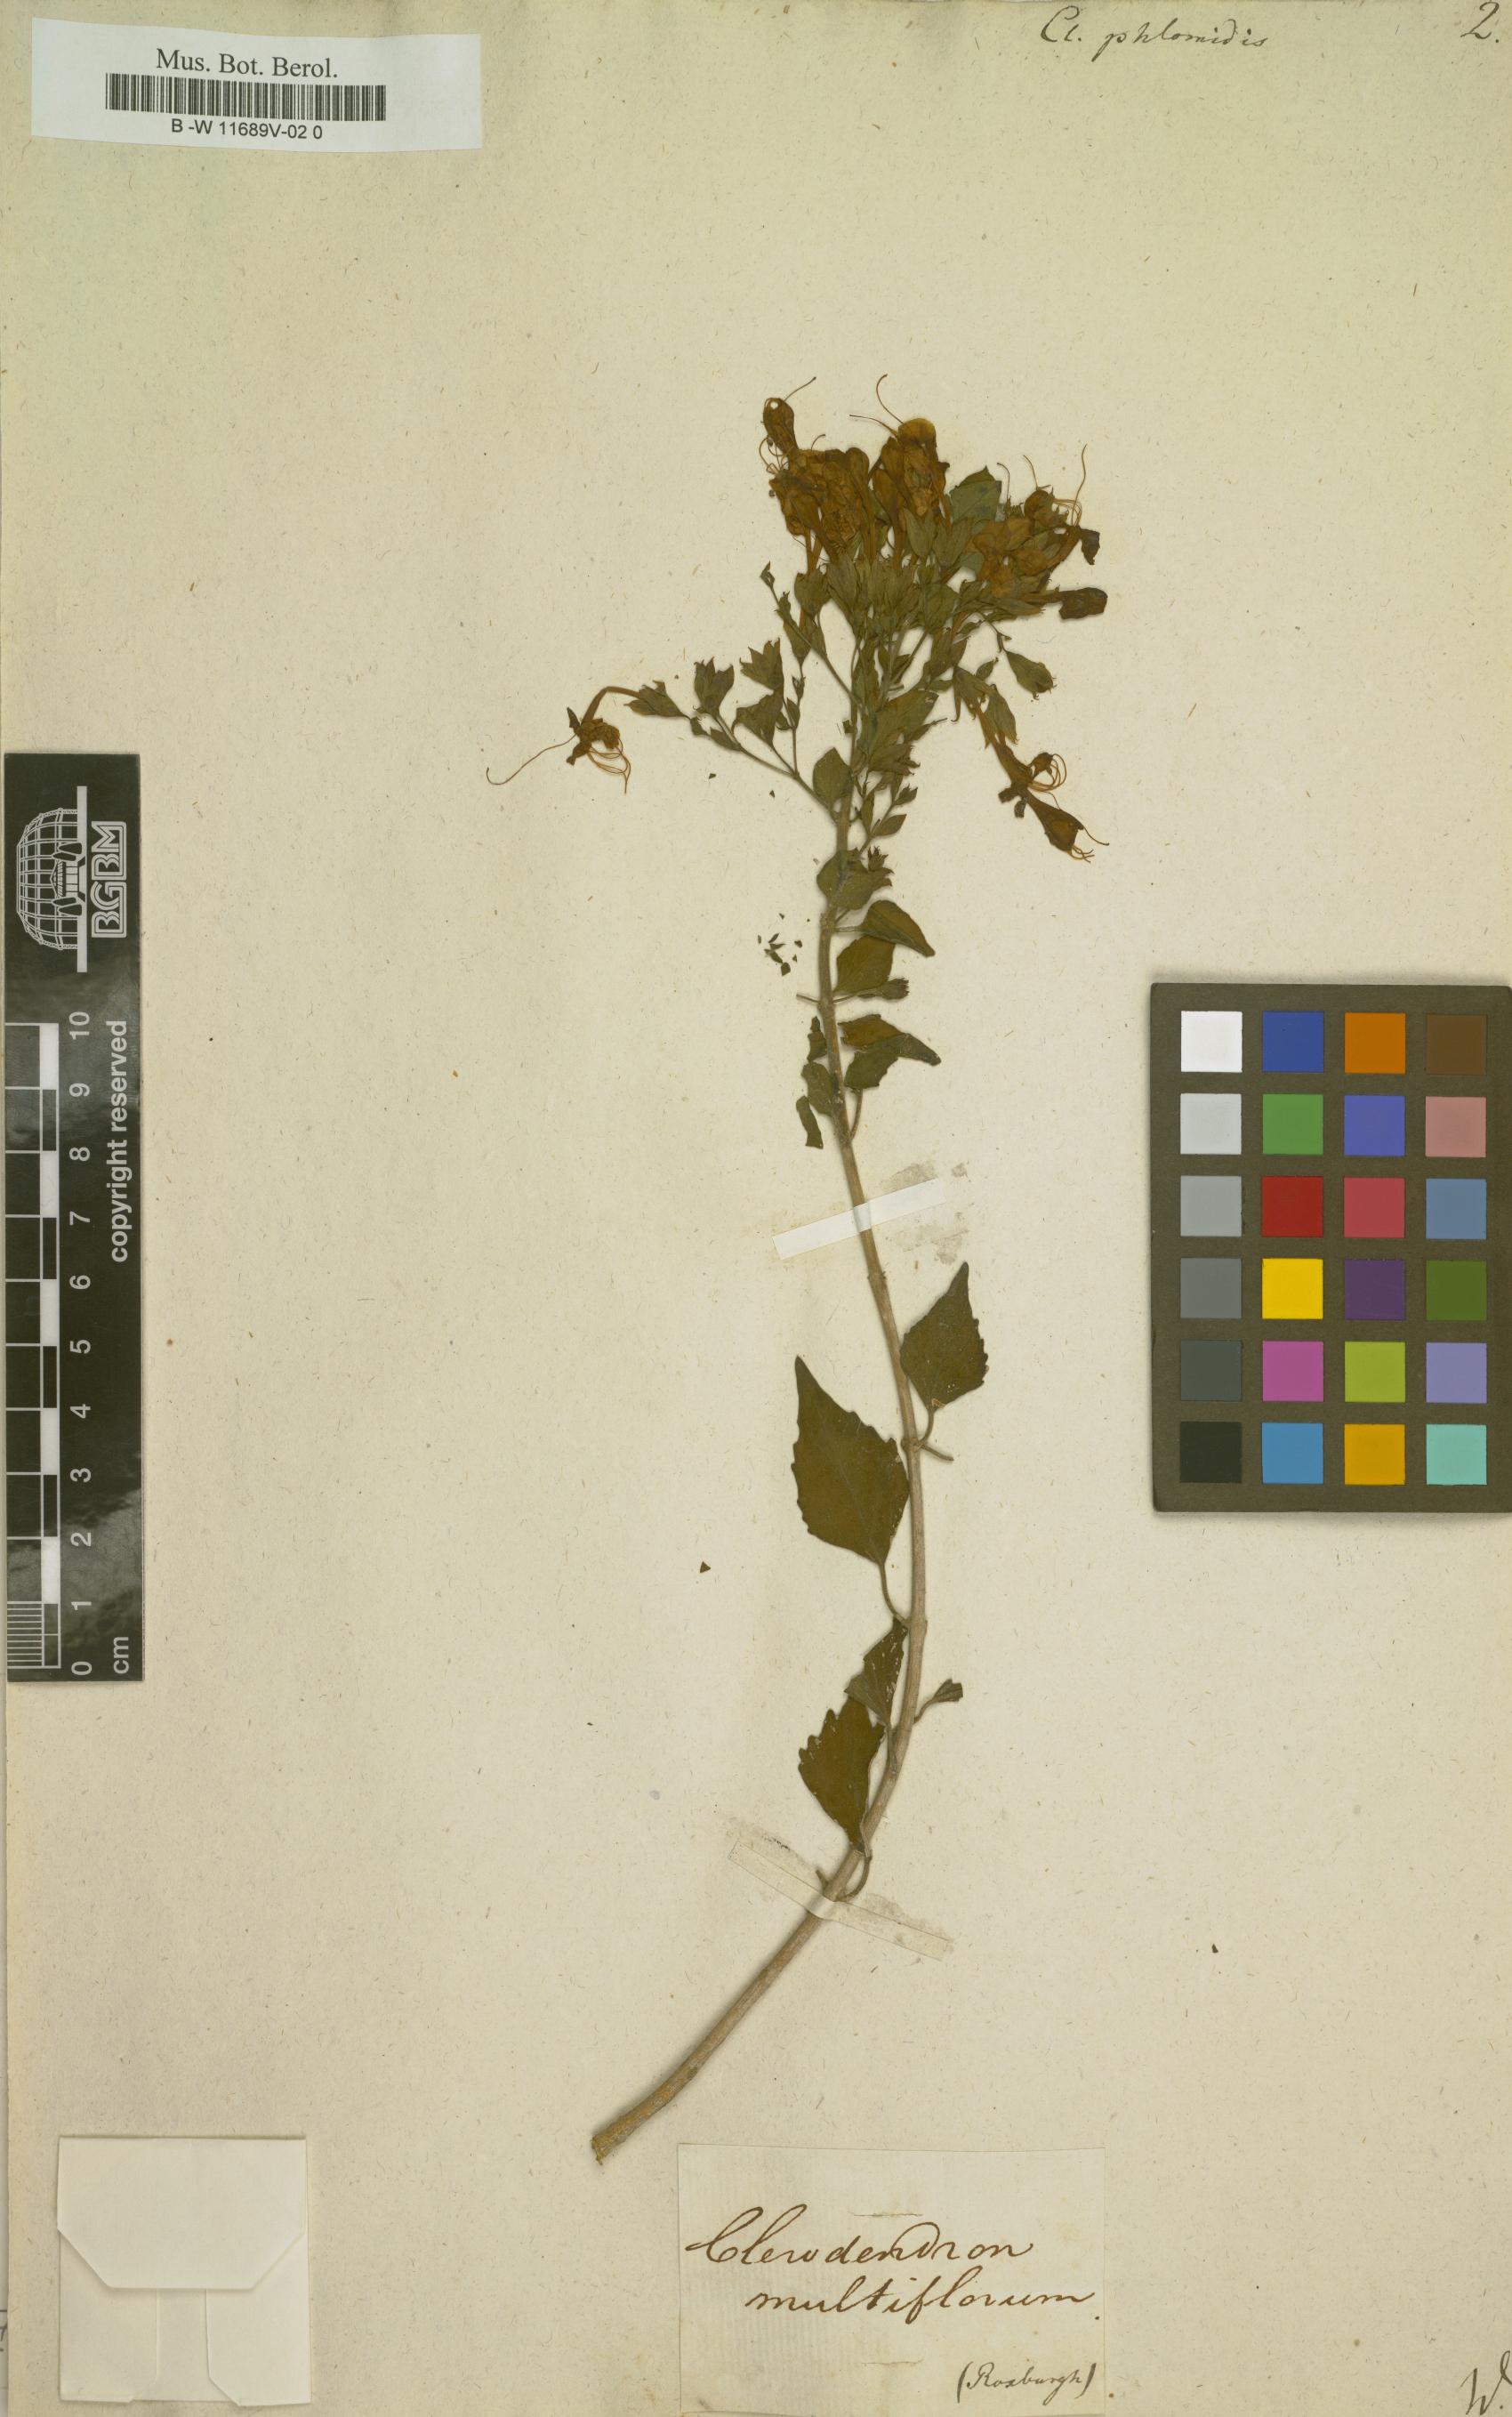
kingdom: Plantae
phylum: Tracheophyta
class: Magnoliopsida
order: Lamiales
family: Lamiaceae
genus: Clerodendrum
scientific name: Clerodendrum phlomoides
